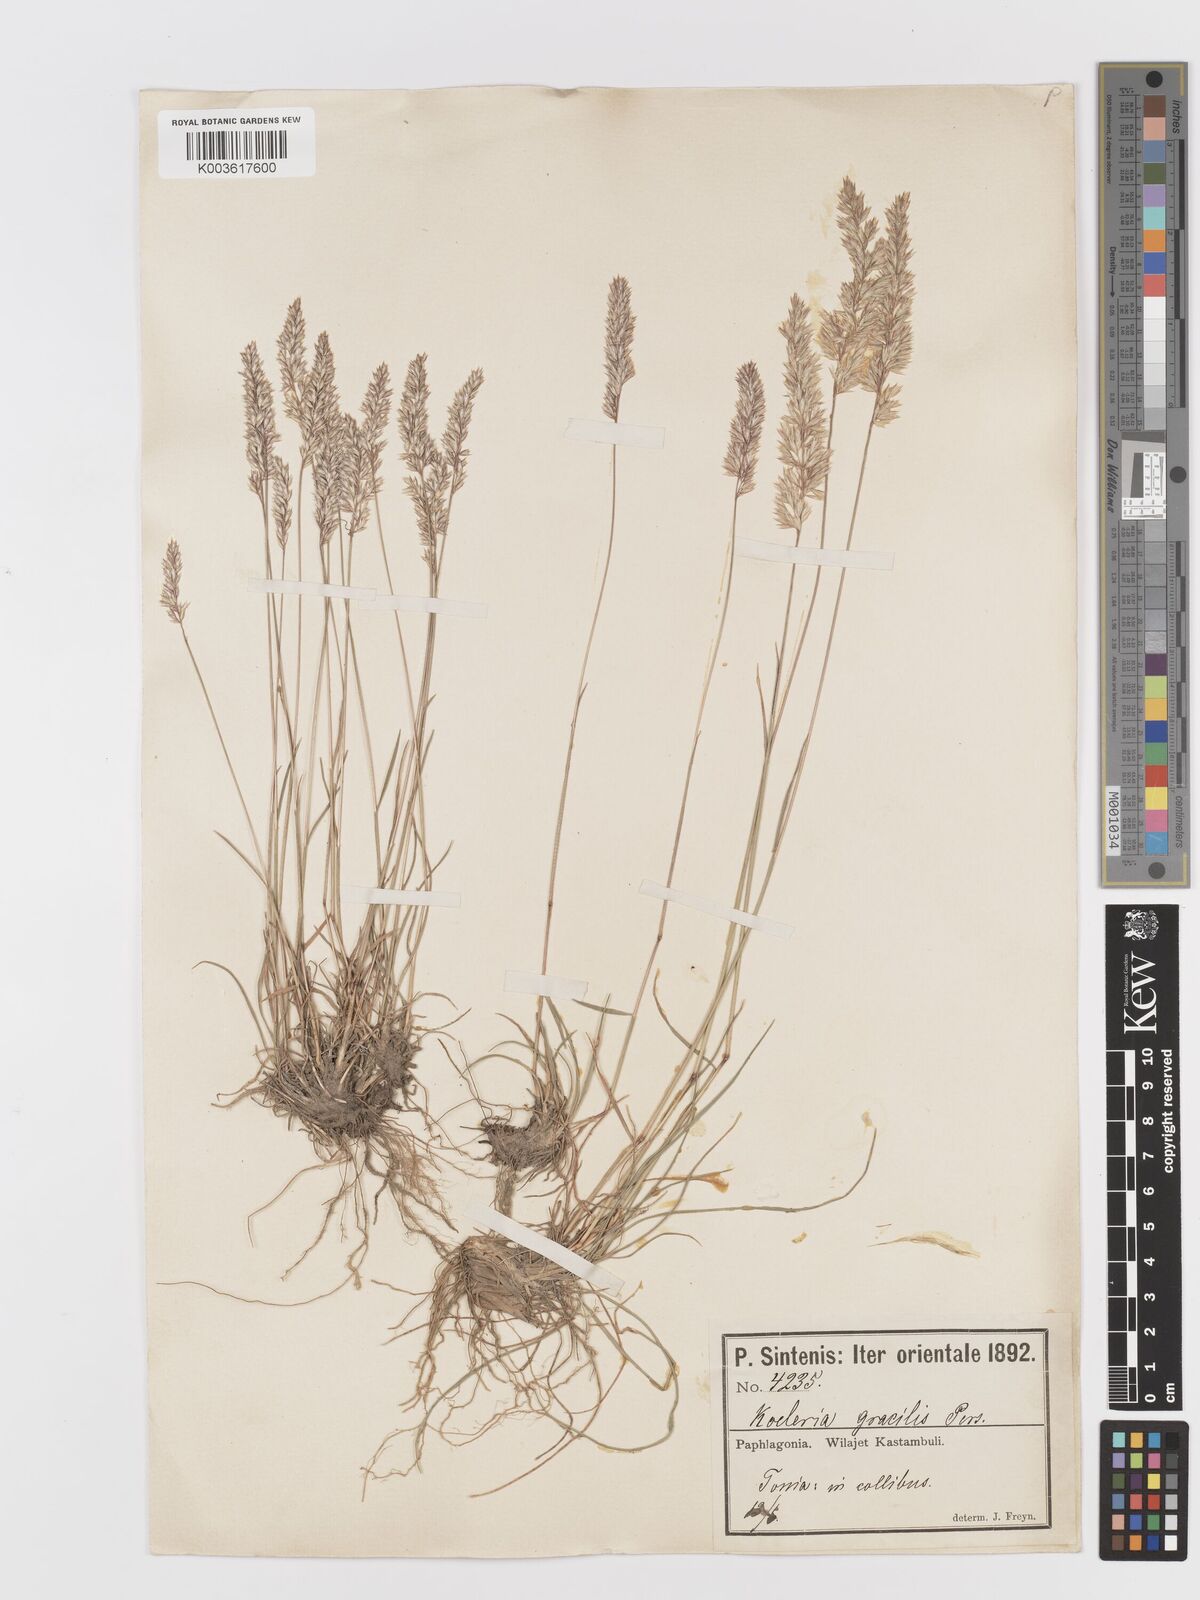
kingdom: Plantae
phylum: Tracheophyta
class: Liliopsida
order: Poales
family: Poaceae
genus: Koeleria
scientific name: Koeleria macrantha
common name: Crested hair-grass
